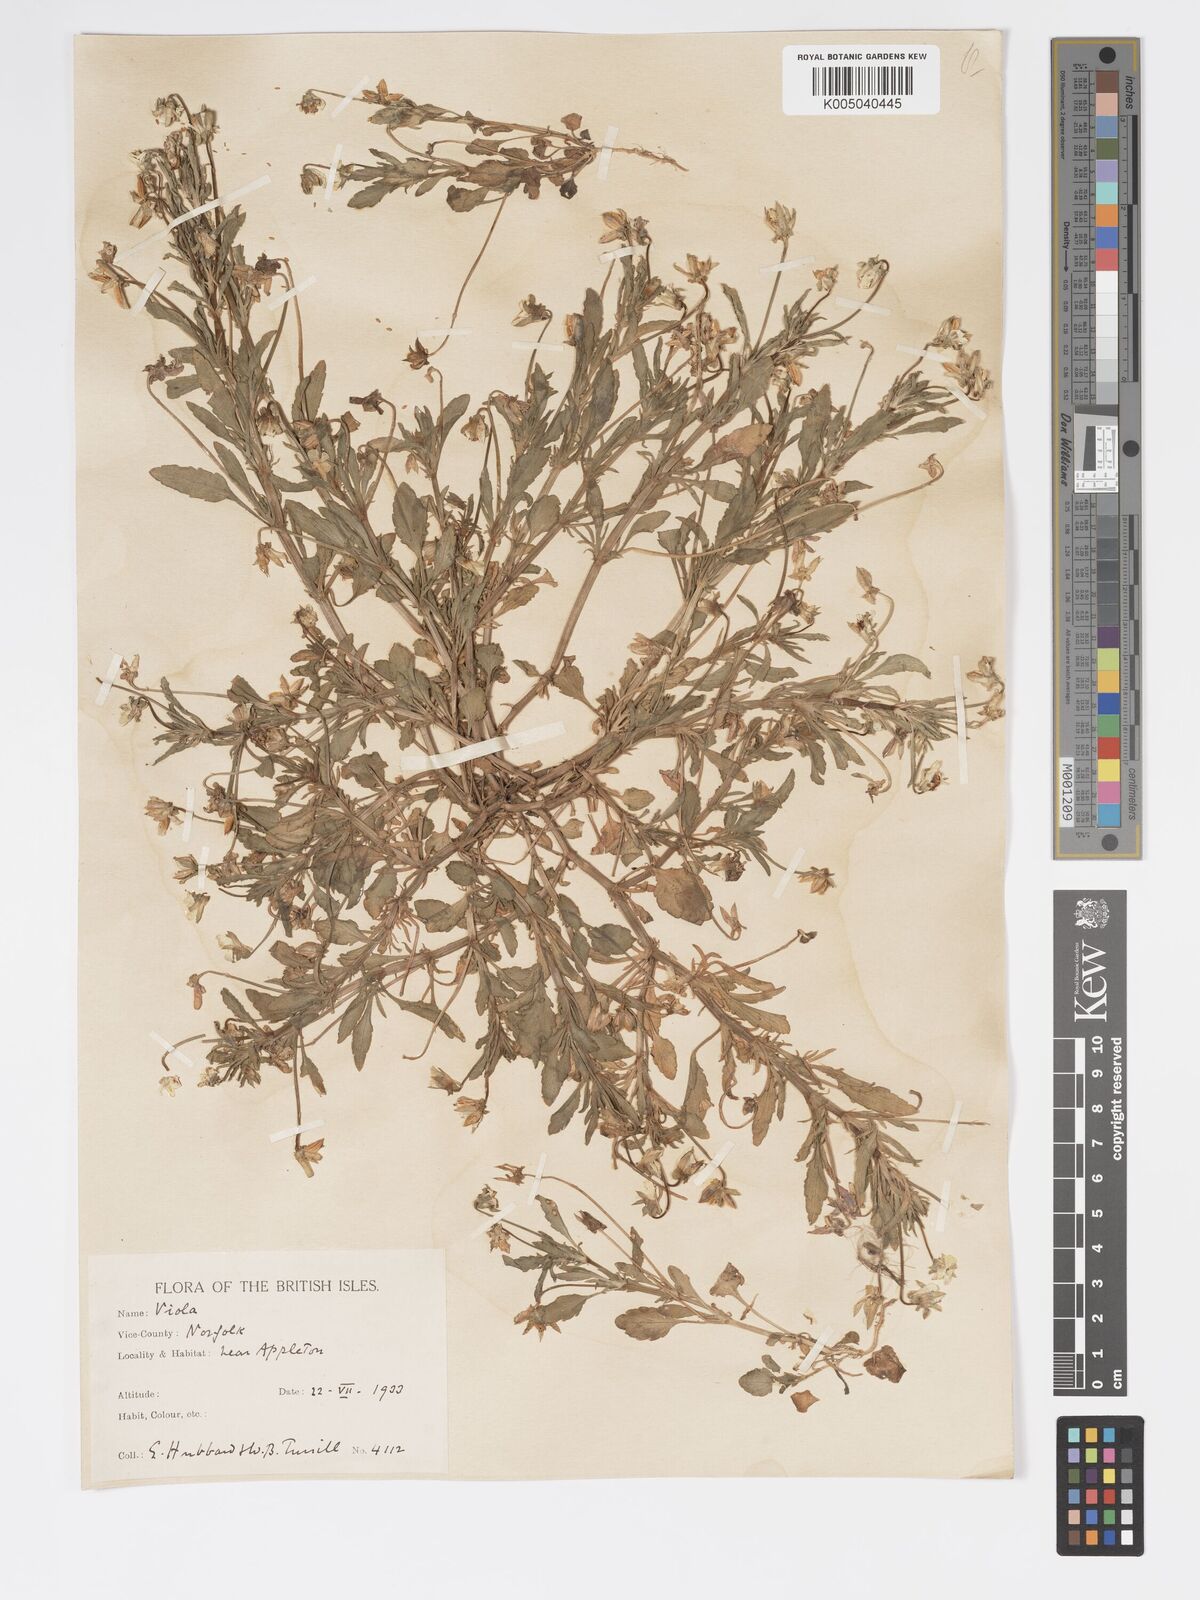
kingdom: Plantae
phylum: Tracheophyta
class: Magnoliopsida
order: Malpighiales
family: Violaceae
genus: Viola
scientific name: Viola arvensis
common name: Field pansy
